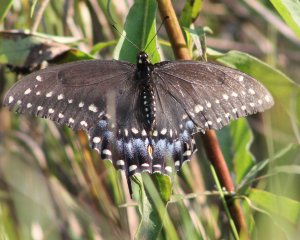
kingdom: Animalia
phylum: Arthropoda
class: Insecta
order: Lepidoptera
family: Papilionidae
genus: Papilio
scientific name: Papilio polyxenes
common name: Black Swallowtail
